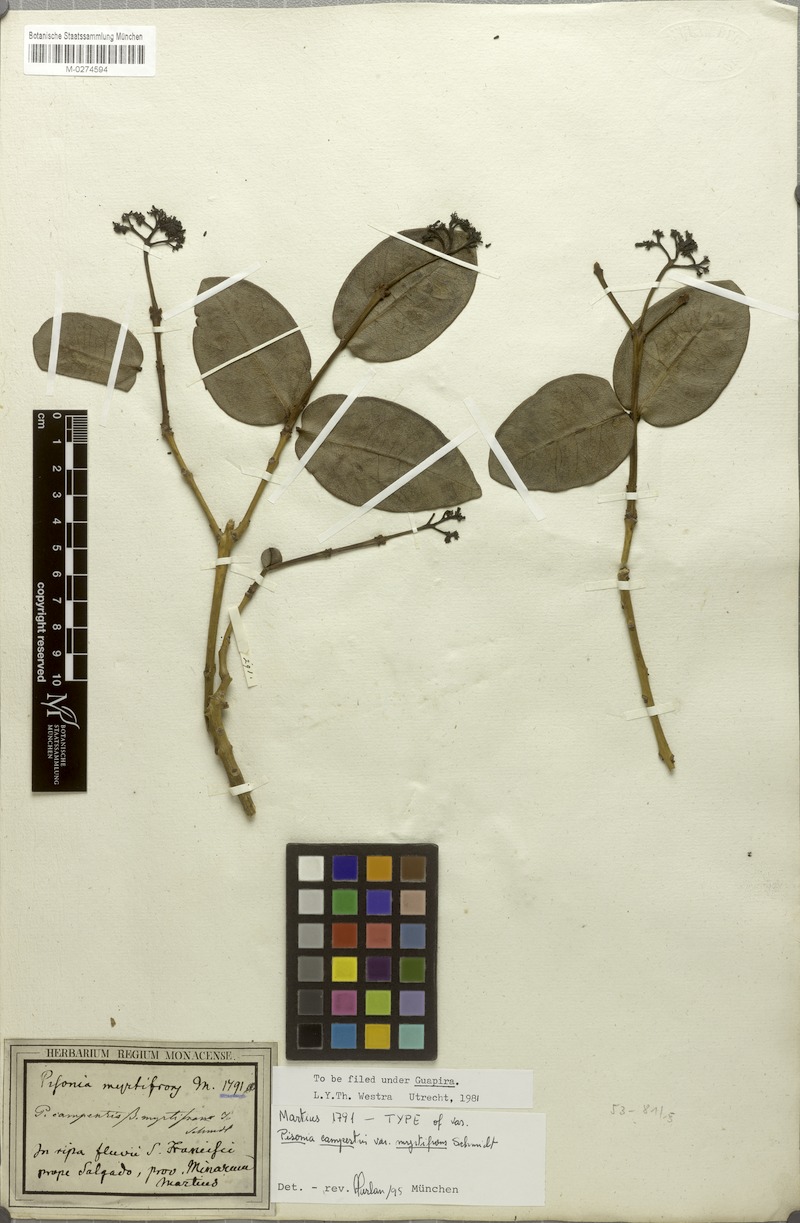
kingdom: Plantae
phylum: Tracheophyta
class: Magnoliopsida
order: Caryophyllales
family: Nyctaginaceae
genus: Guapira
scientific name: Guapira campestris
